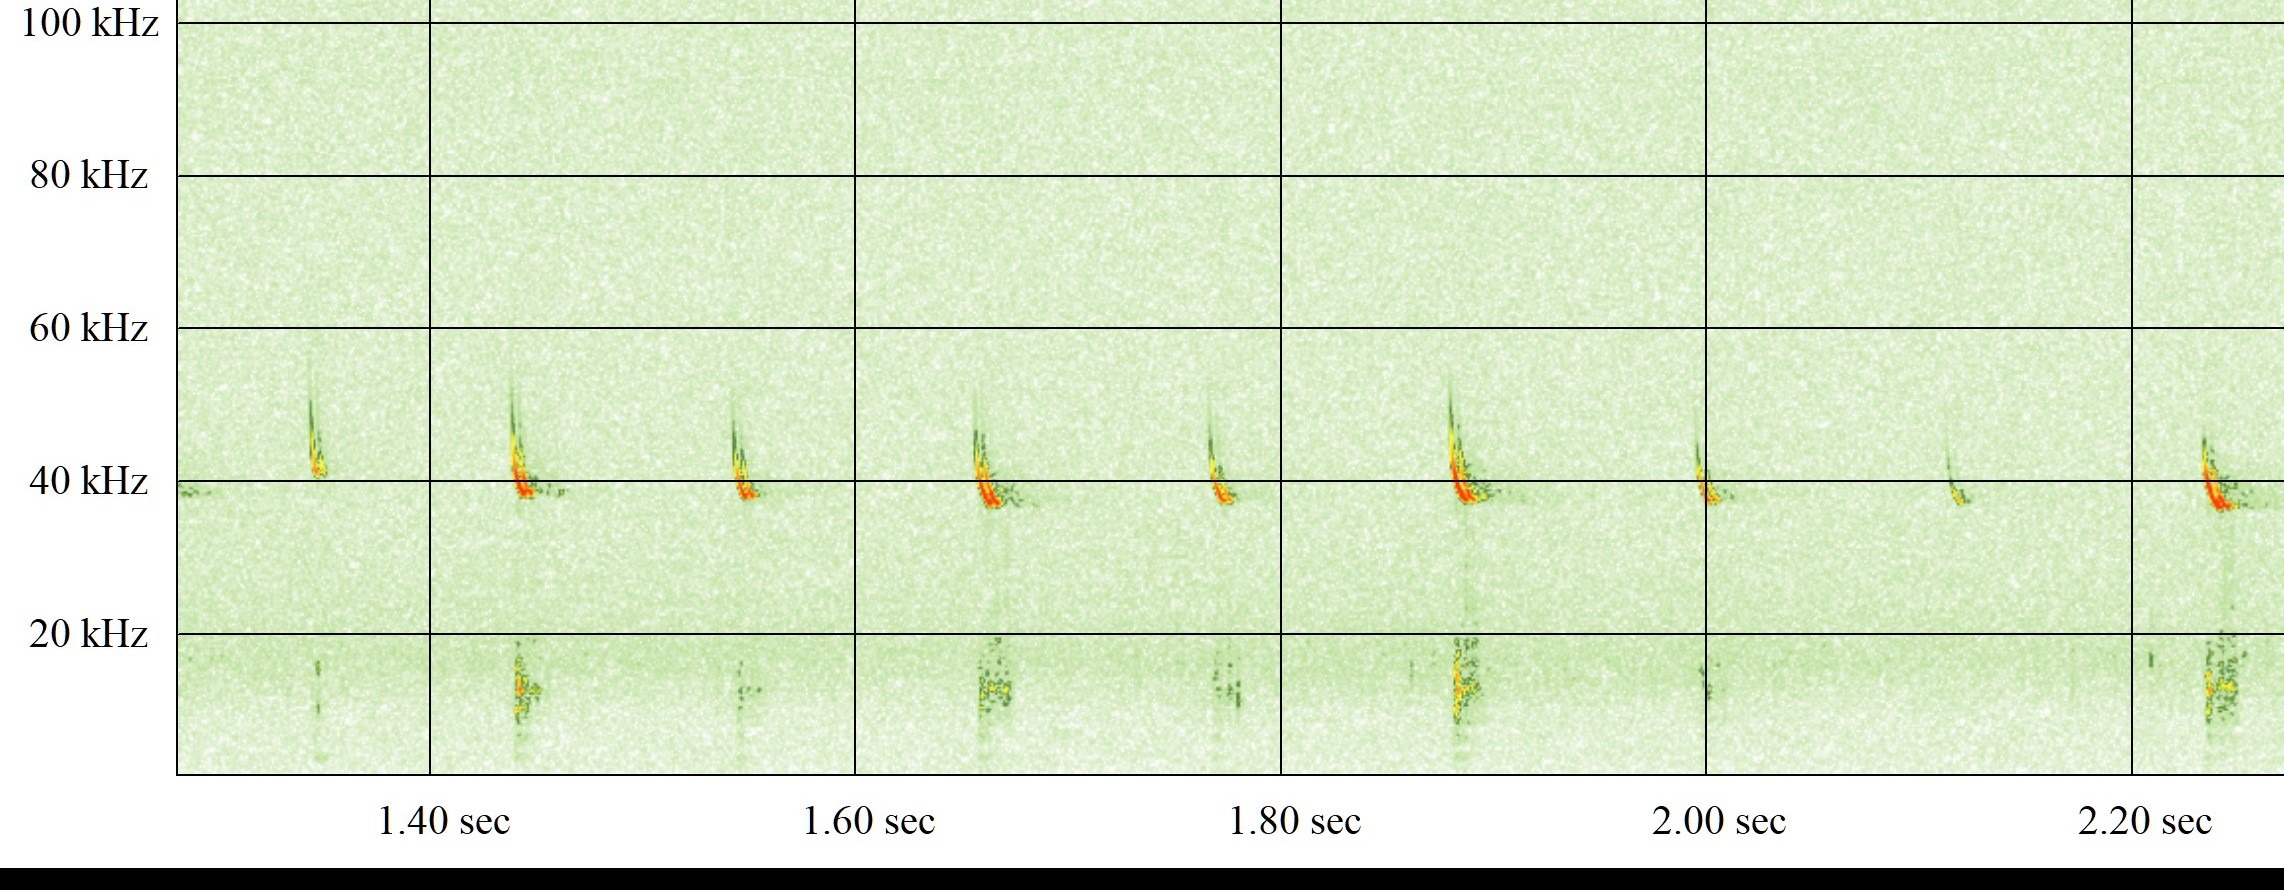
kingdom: Animalia
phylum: Chordata
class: Mammalia
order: Chiroptera
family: Vespertilionidae
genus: Pipistrellus
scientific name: Pipistrellus nathusii
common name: Troldflagermus
